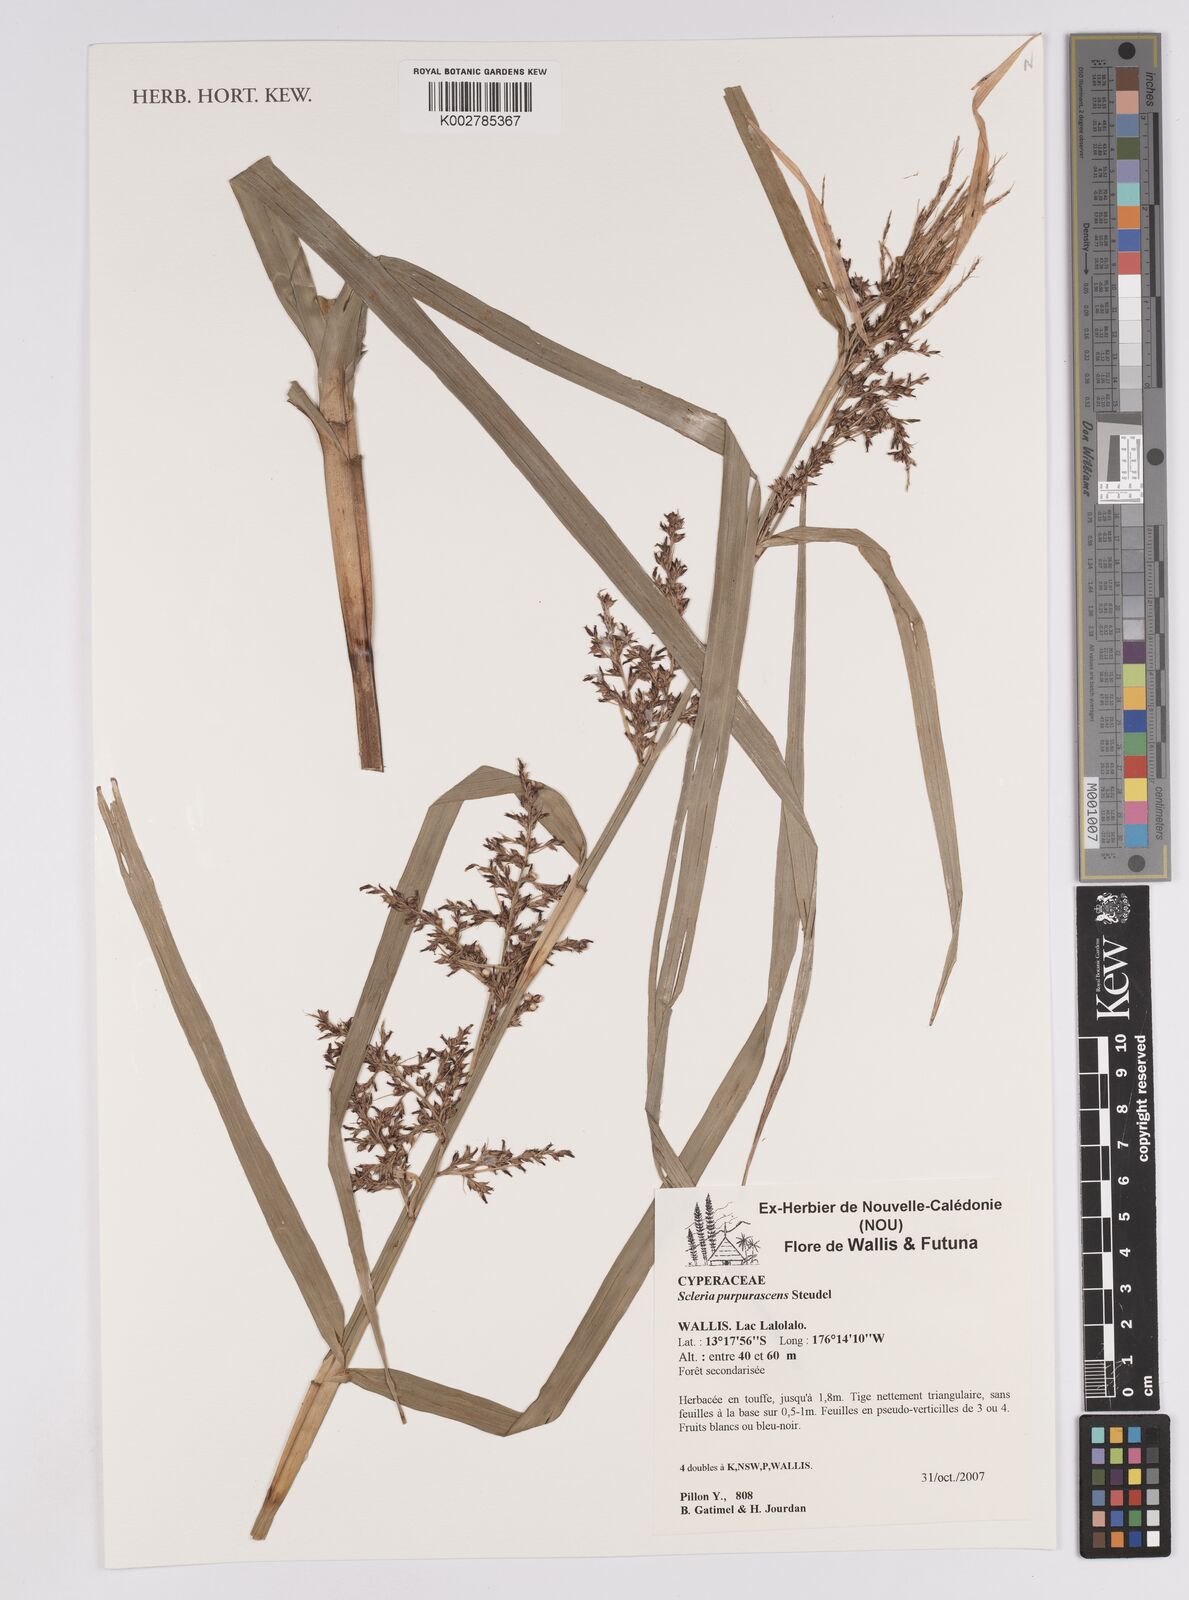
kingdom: Plantae
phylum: Tracheophyta
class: Liliopsida
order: Poales
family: Cyperaceae
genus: Scleria
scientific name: Scleria purpurascens
